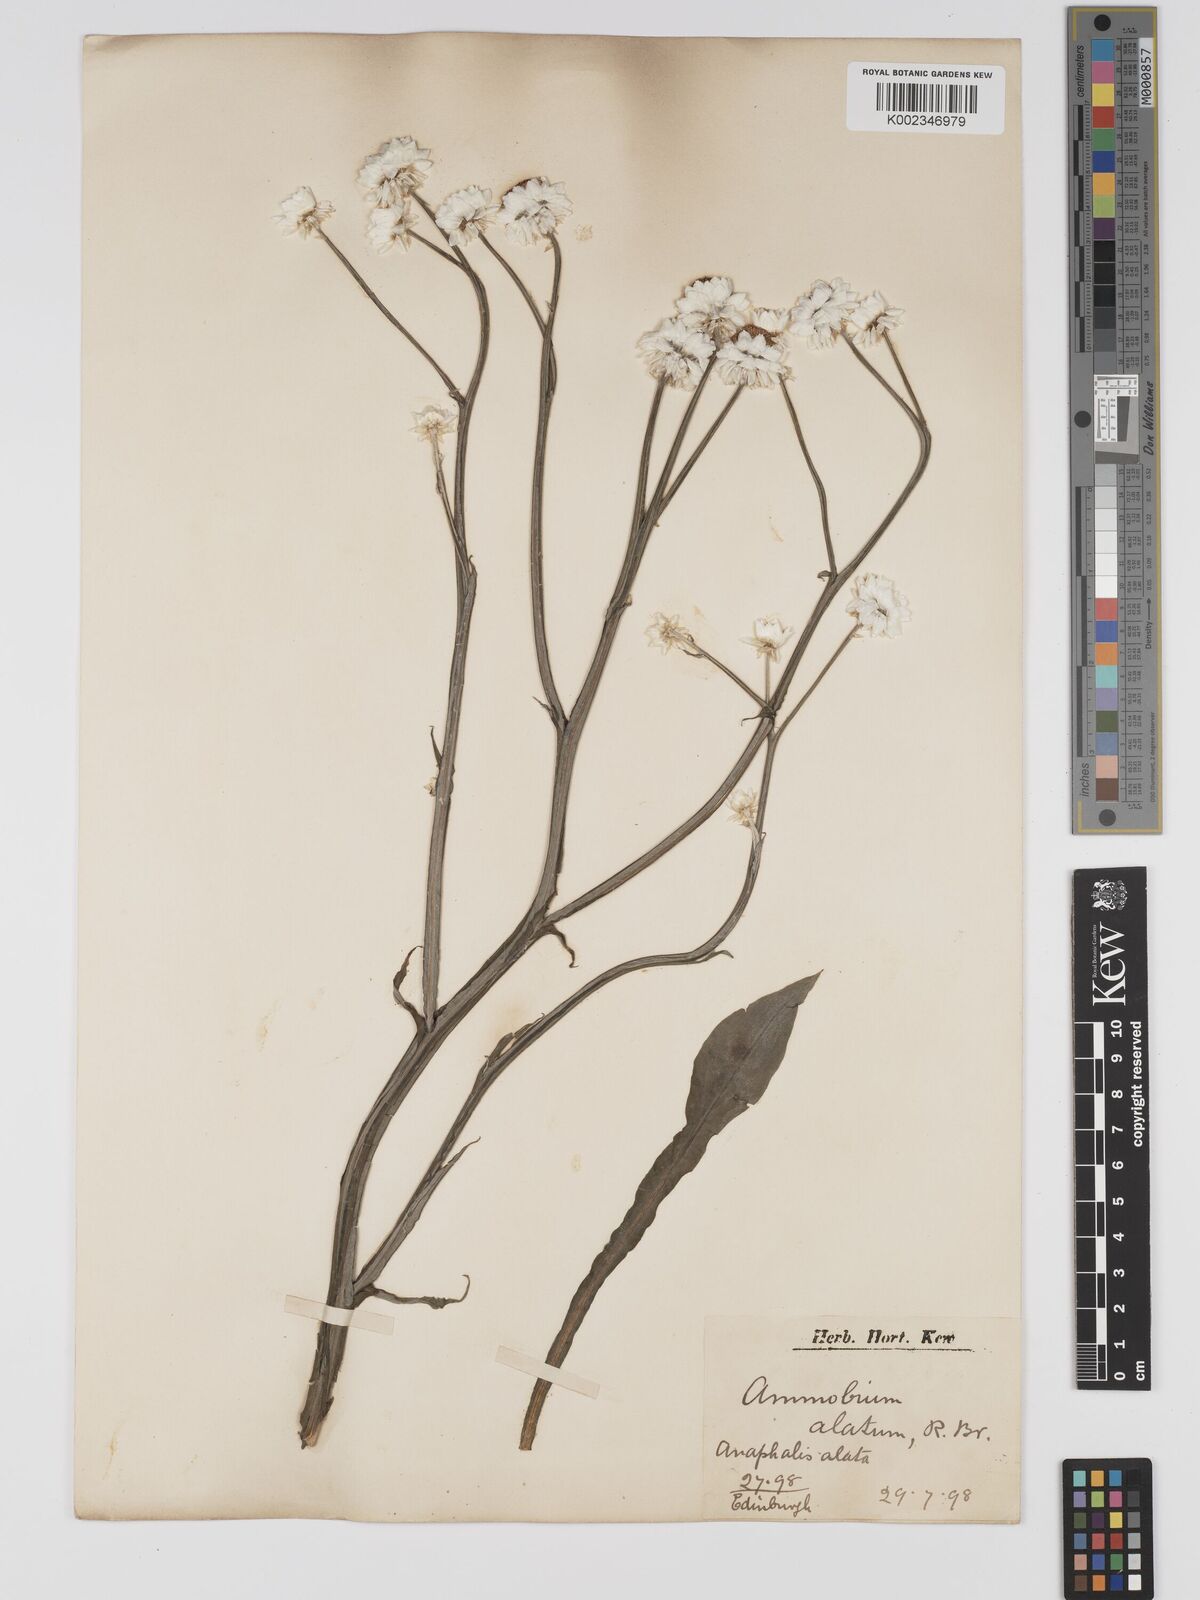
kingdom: Plantae
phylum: Tracheophyta
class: Magnoliopsida
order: Asterales
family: Asteraceae
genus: Ammobium
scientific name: Ammobium alatum
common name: Winged everlasting
